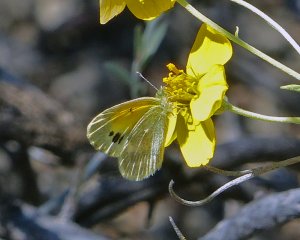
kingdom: Animalia
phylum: Arthropoda
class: Insecta
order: Lepidoptera
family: Pieridae
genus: Nathalis
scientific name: Nathalis iole
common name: Dainty Sulphur
